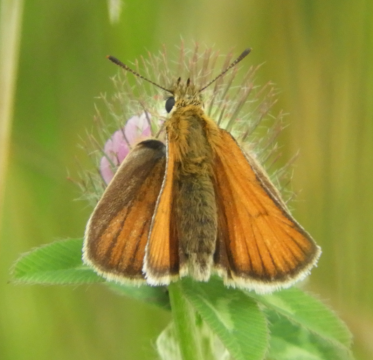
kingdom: Animalia
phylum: Arthropoda
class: Insecta
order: Lepidoptera
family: Hesperiidae
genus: Thymelicus
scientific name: Thymelicus lineola
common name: European Skipper
